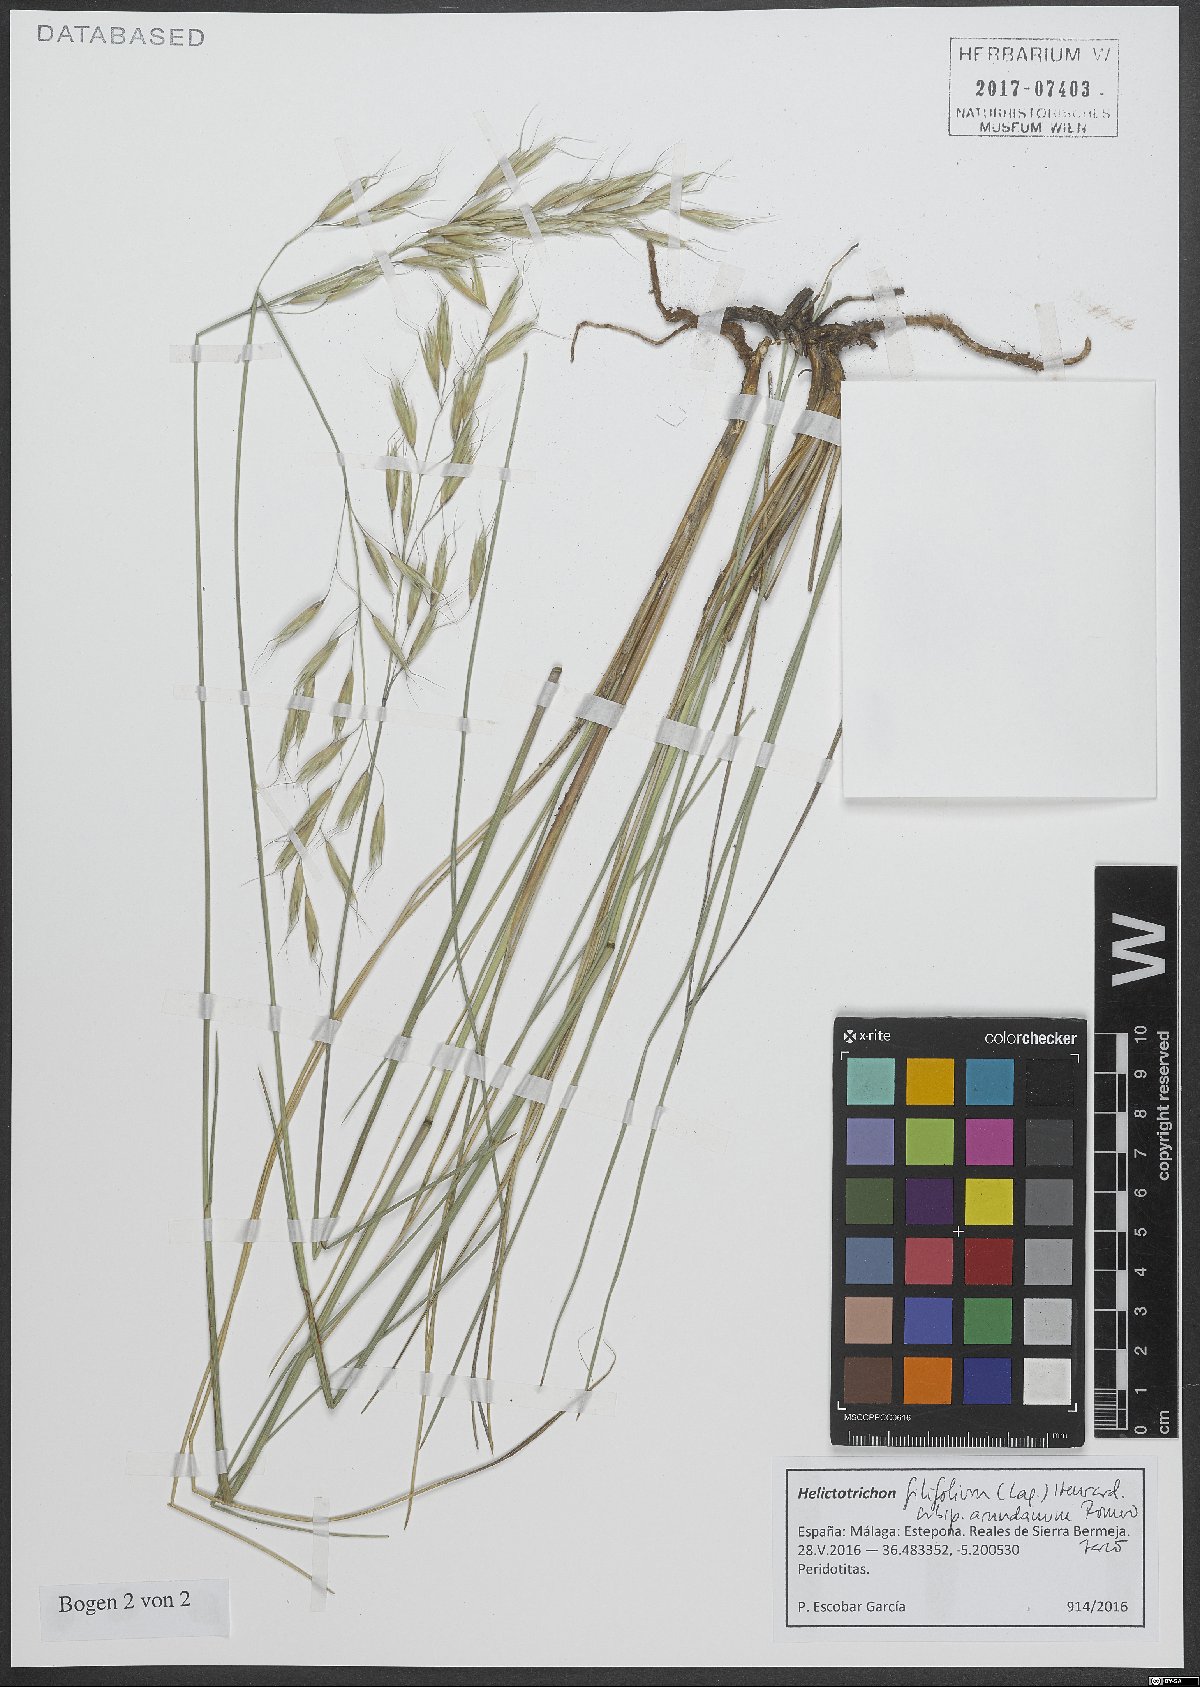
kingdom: Plantae
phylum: Tracheophyta
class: Liliopsida
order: Poales
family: Poaceae
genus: Helictotrichon
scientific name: Helictotrichon filifolium
